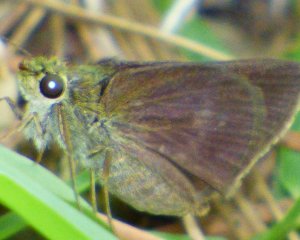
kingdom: Animalia
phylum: Arthropoda
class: Insecta
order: Lepidoptera
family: Hesperiidae
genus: Polites
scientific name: Polites egeremet
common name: Northern Broken-Dash
